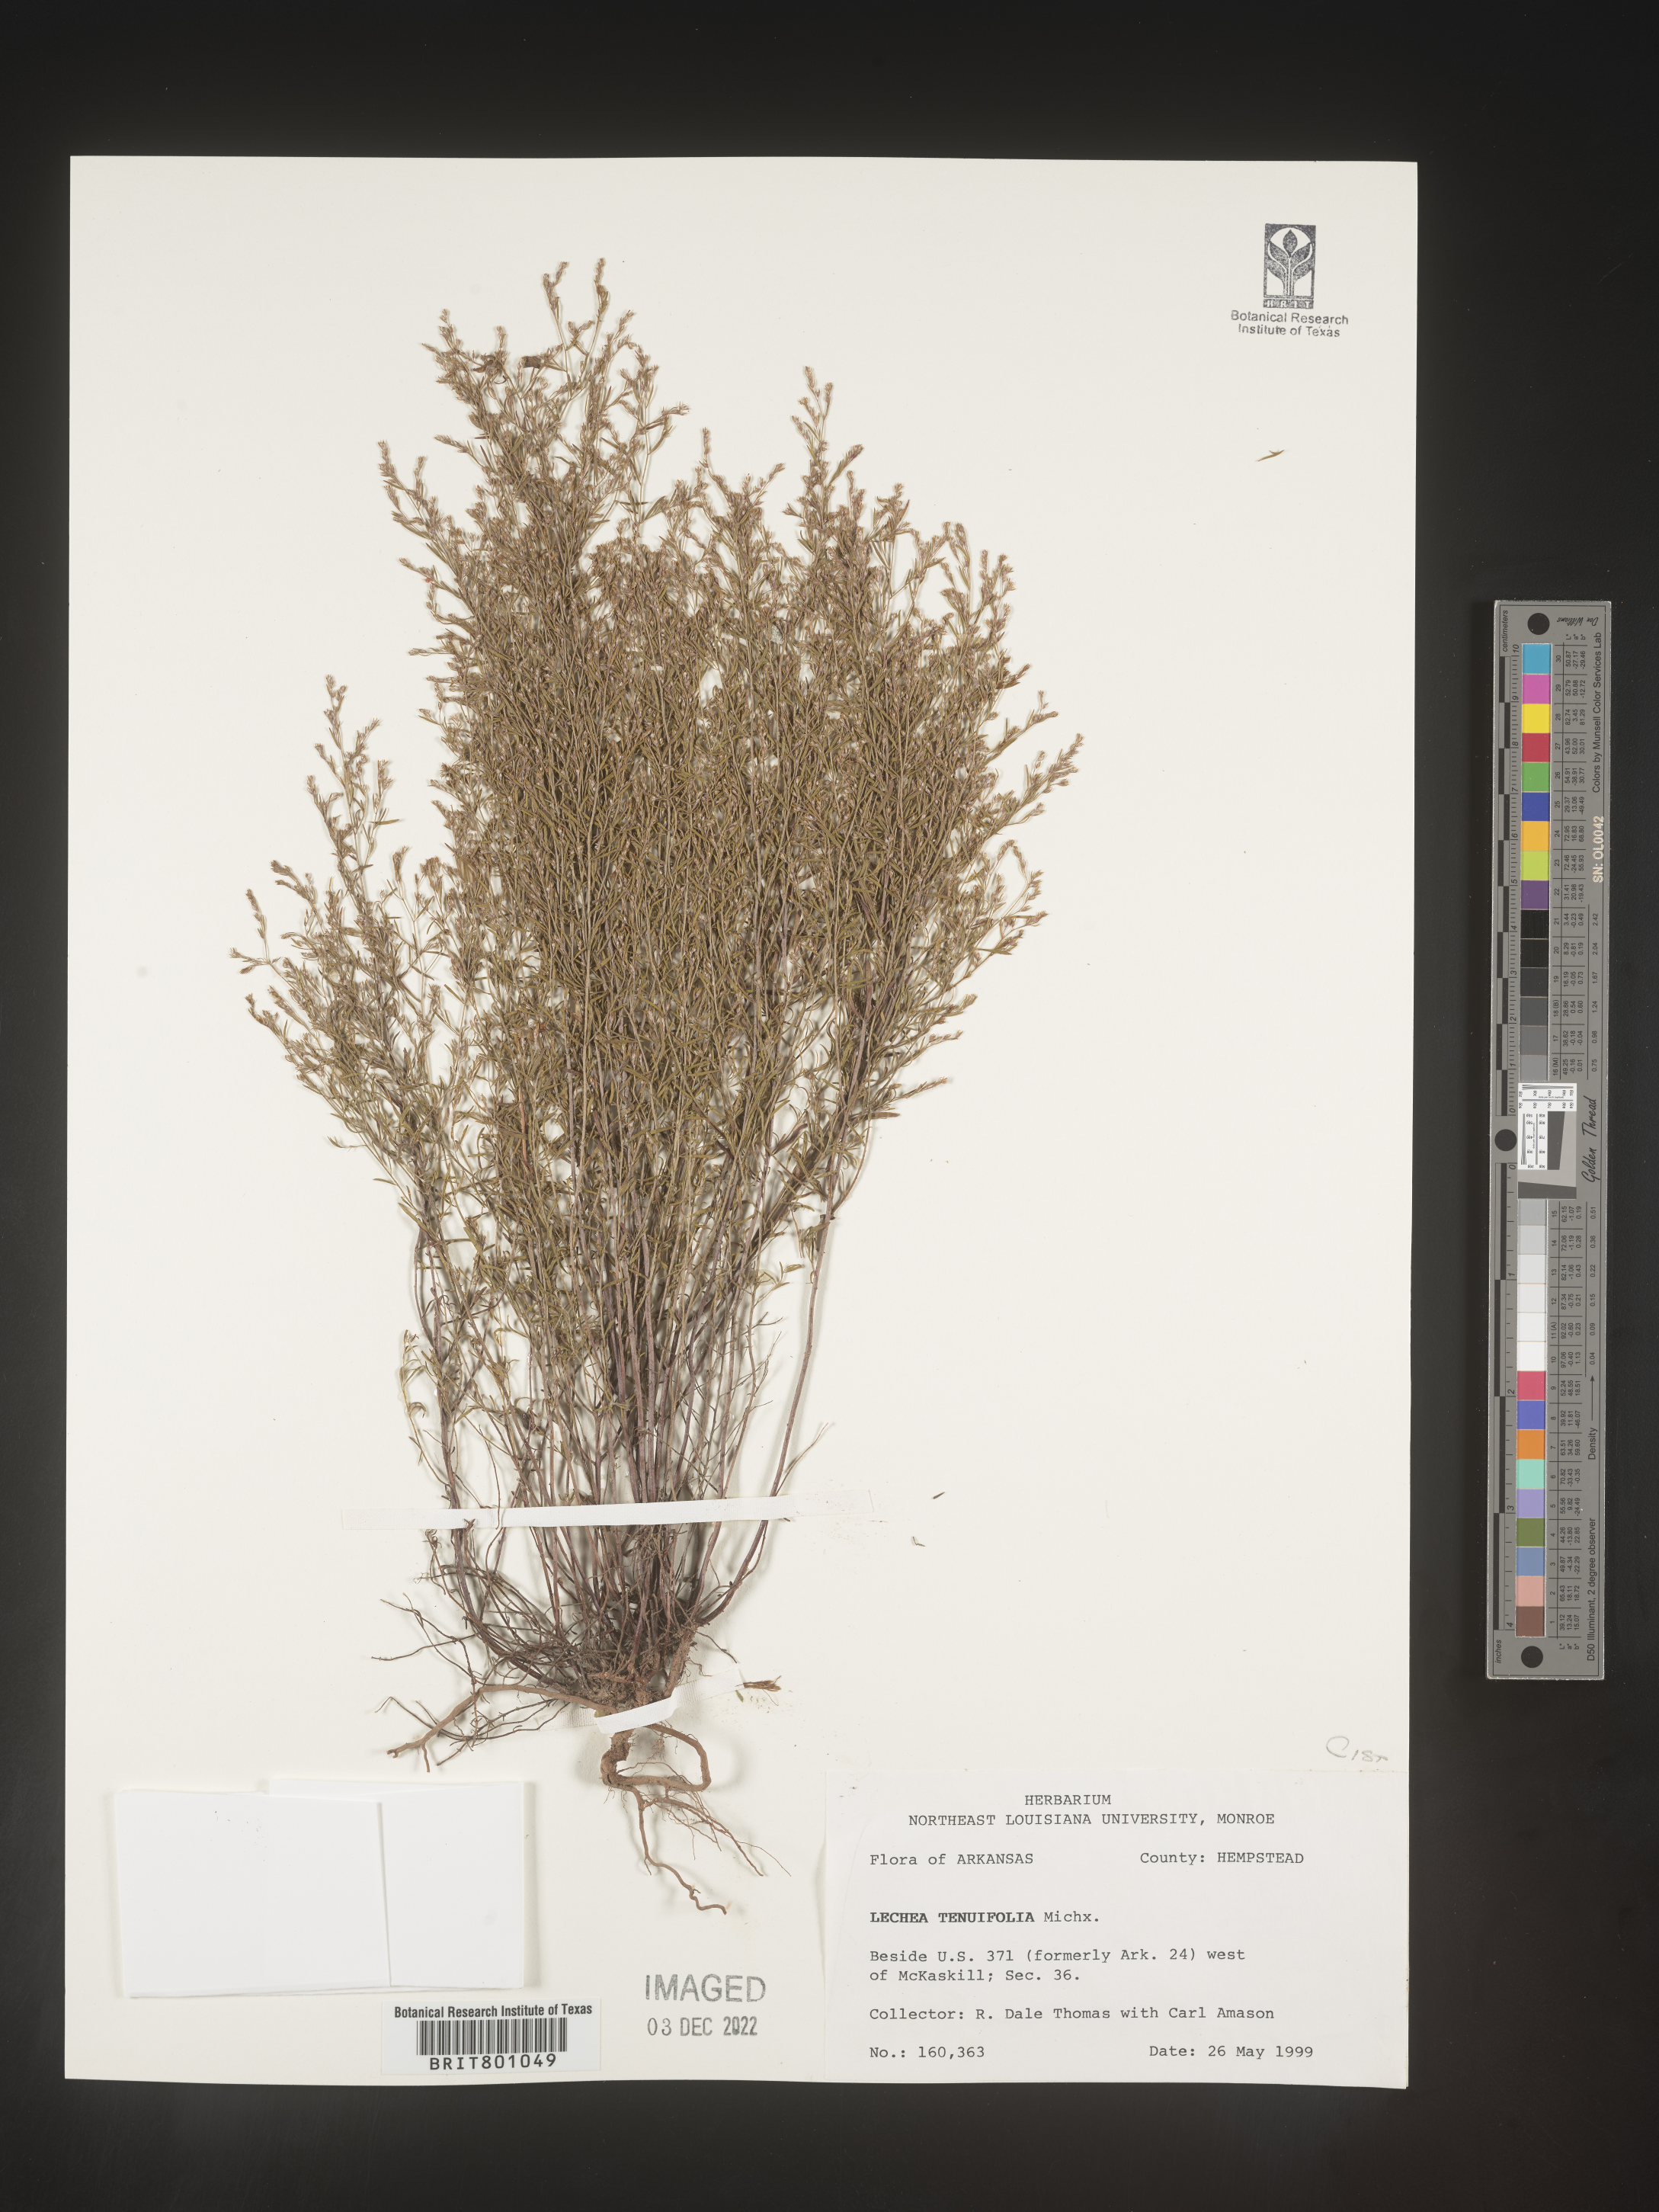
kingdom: Plantae
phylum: Tracheophyta
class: Magnoliopsida
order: Malvales
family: Cistaceae
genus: Lechea
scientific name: Lechea tenuifolia
